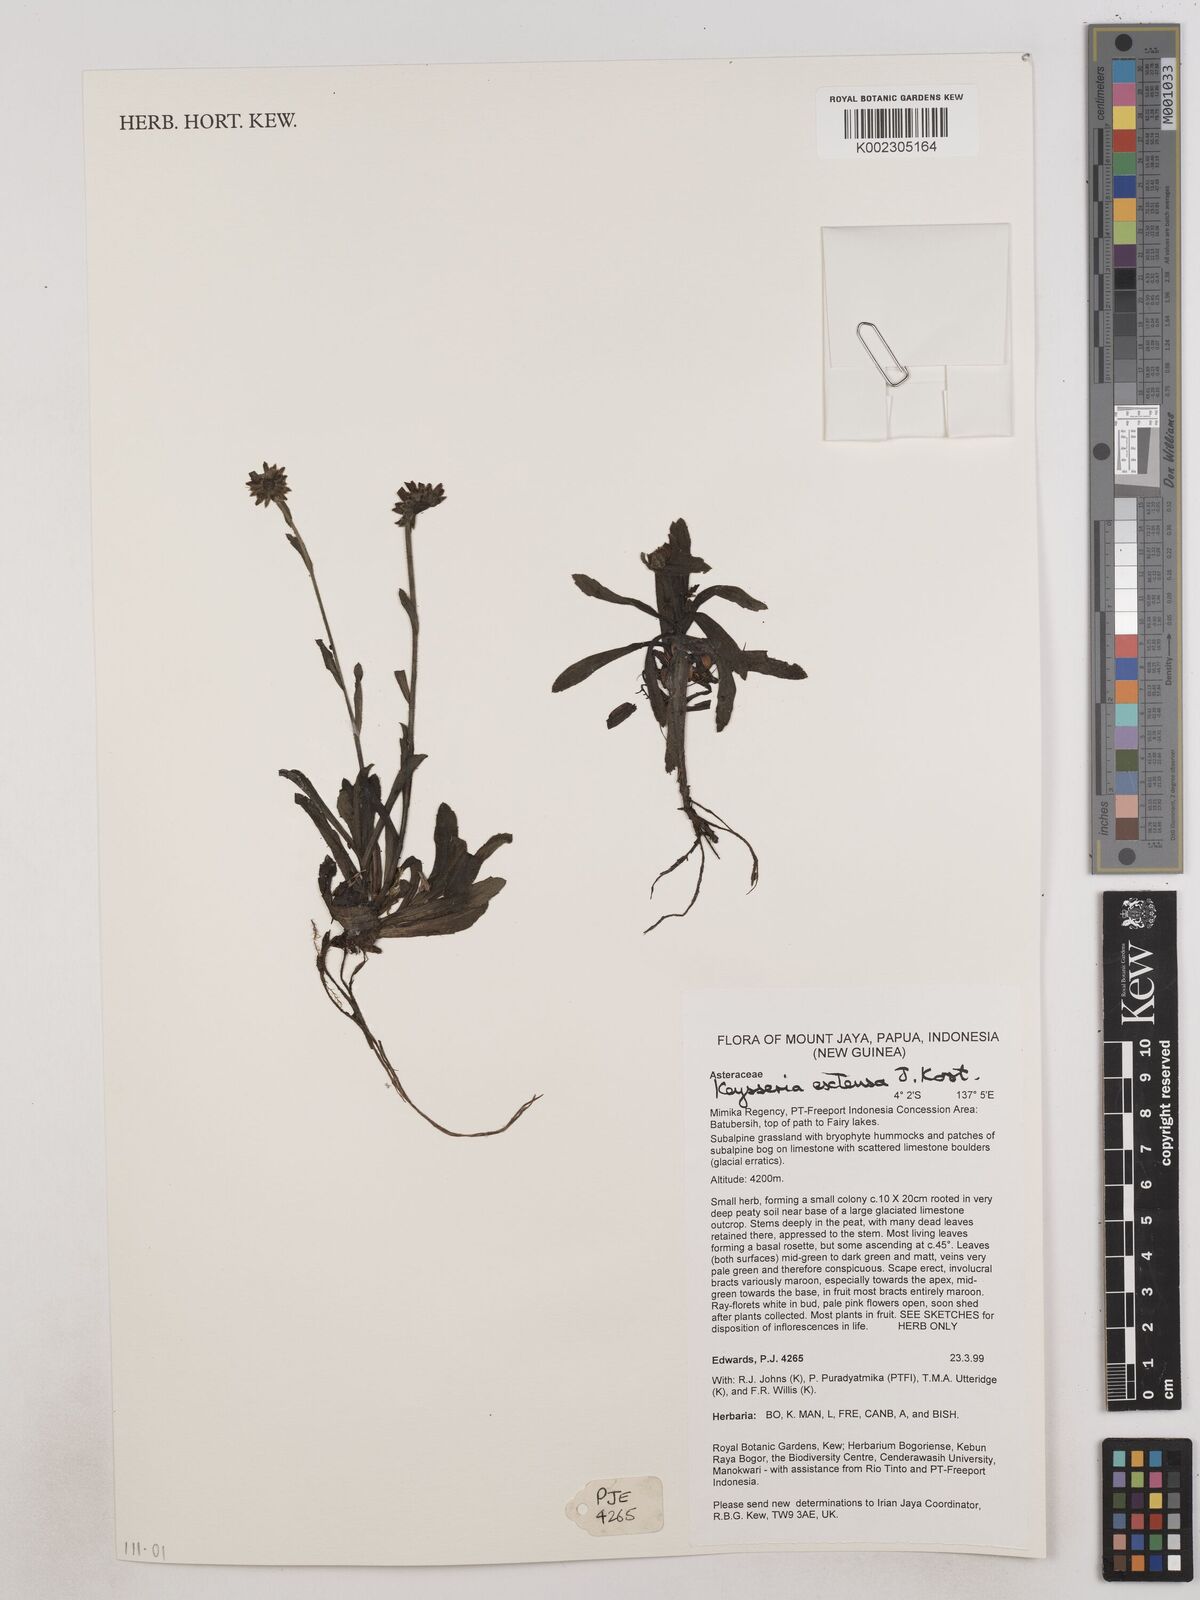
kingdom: Plantae
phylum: Tracheophyta
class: Magnoliopsida
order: Asterales
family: Asteraceae
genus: Keysseria
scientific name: Keysseria extensa
